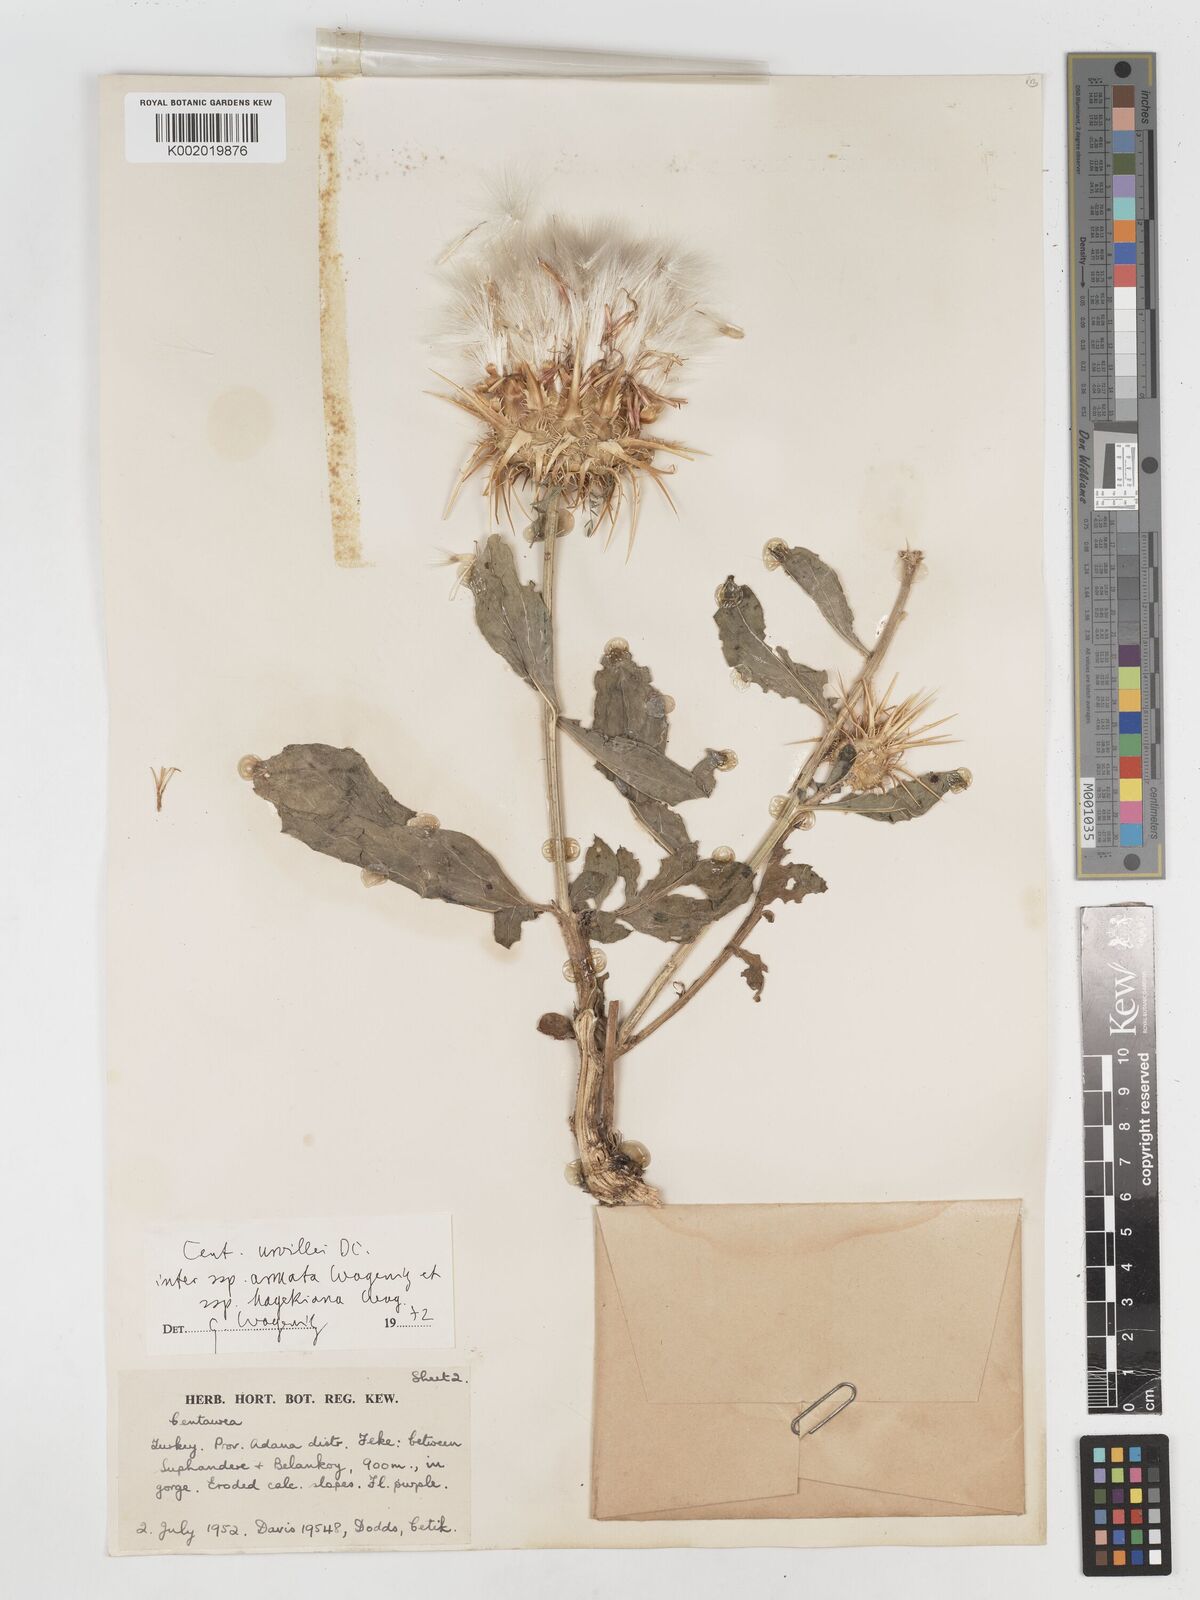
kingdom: Plantae
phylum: Tracheophyta
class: Magnoliopsida
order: Asterales
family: Asteraceae
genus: Centaurea
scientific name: Centaurea urvillei
